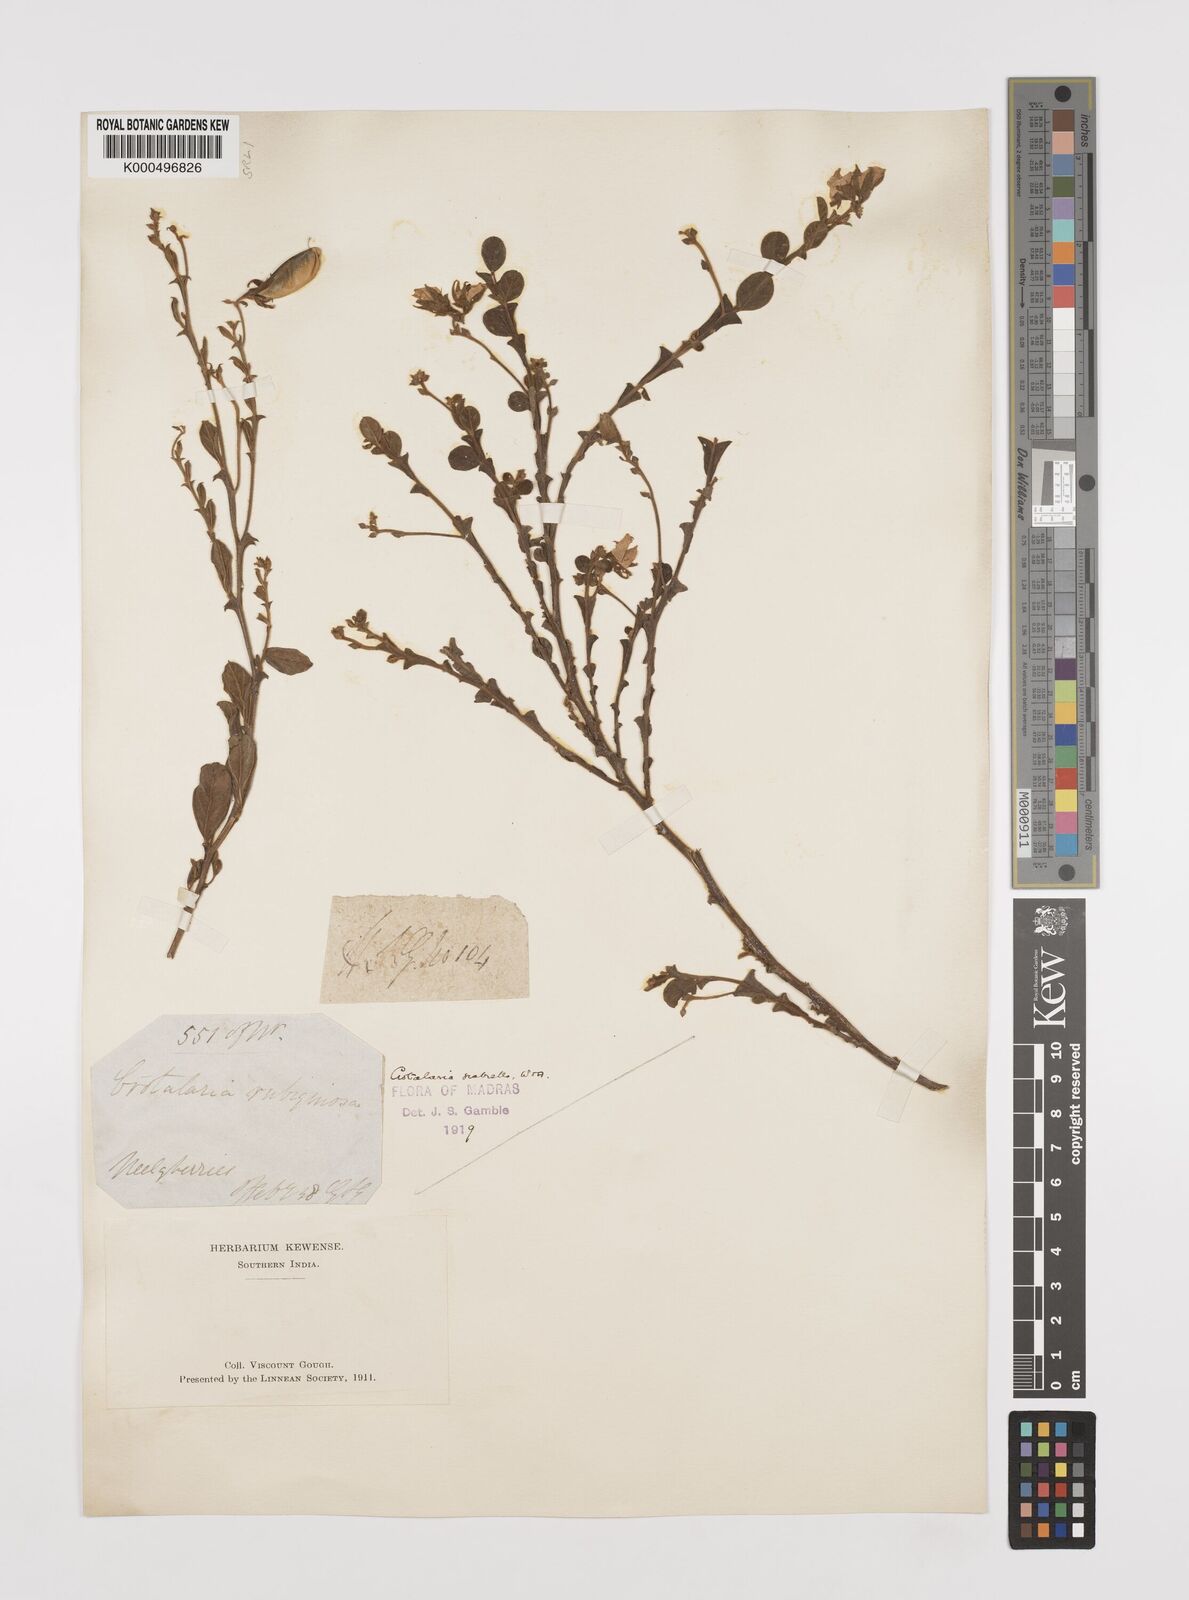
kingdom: Plantae
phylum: Tracheophyta
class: Magnoliopsida
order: Fabales
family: Fabaceae
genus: Crotalaria
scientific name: Crotalaria scabrella
